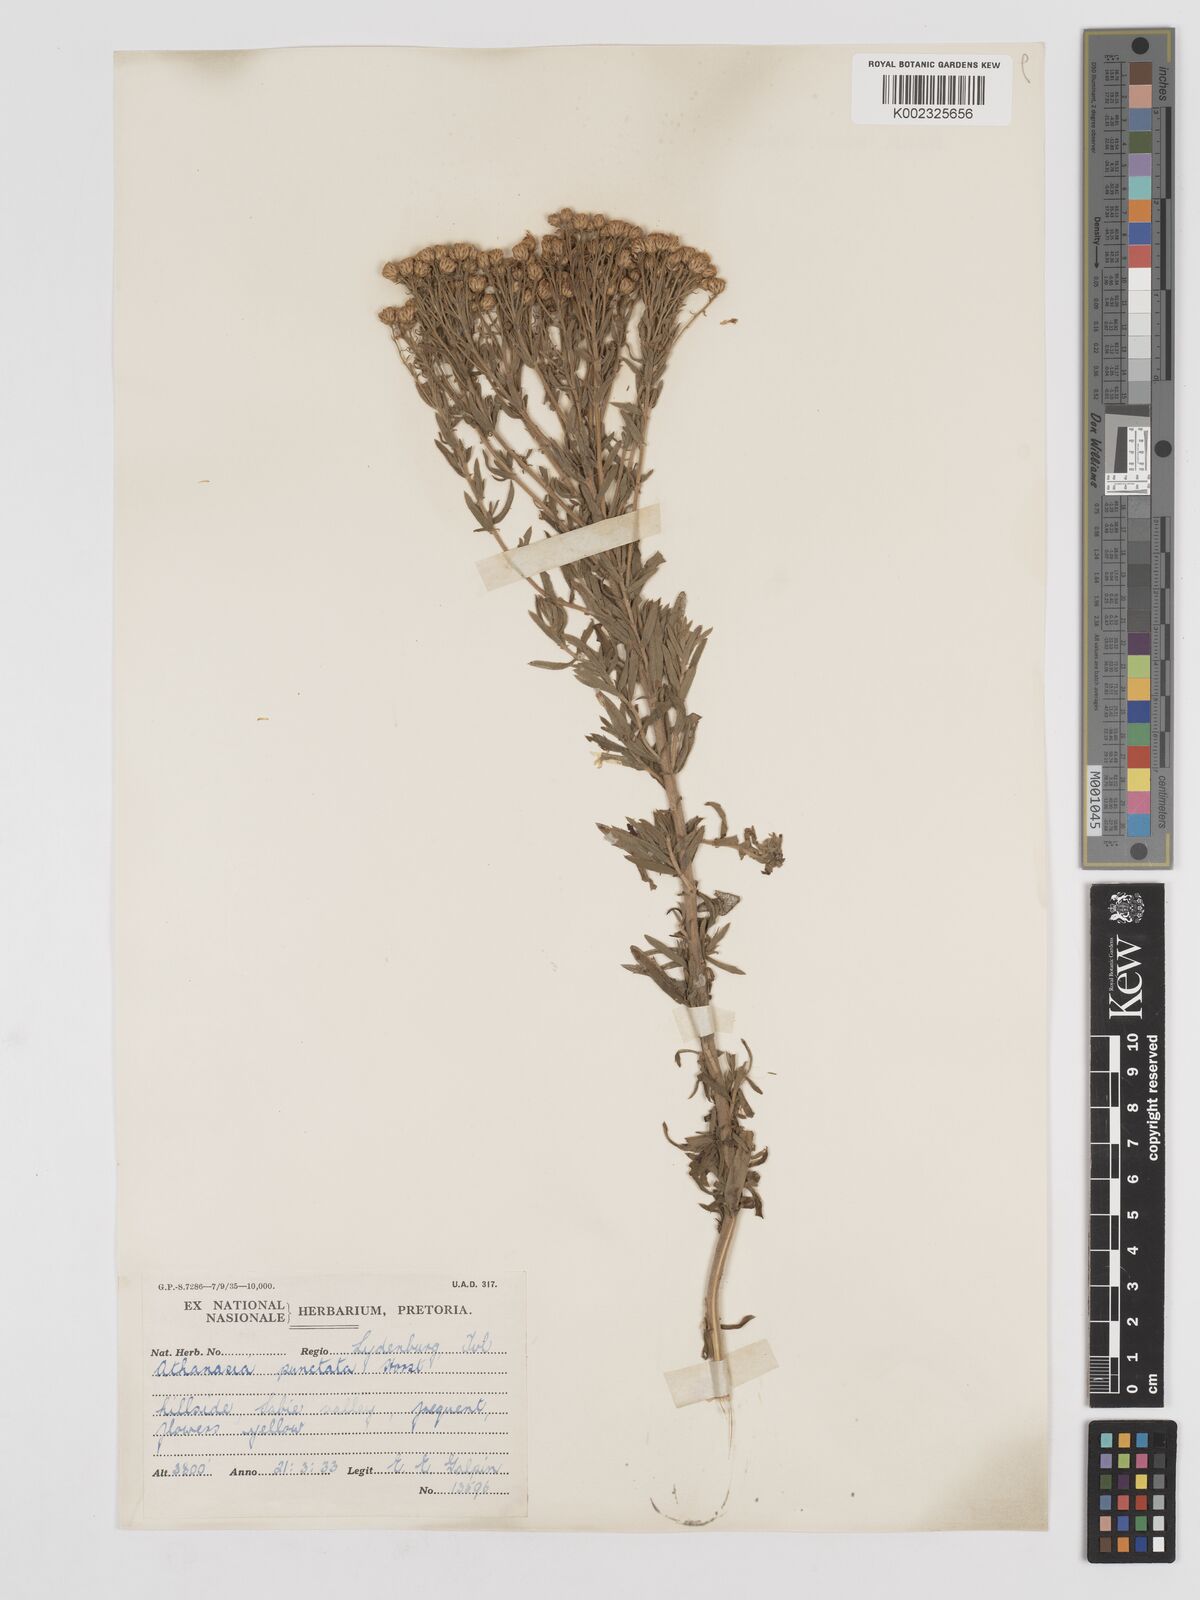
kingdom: Plantae
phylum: Tracheophyta
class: Magnoliopsida
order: Asterales
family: Asteraceae
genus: Inulanthera
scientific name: Inulanthera dregeana
